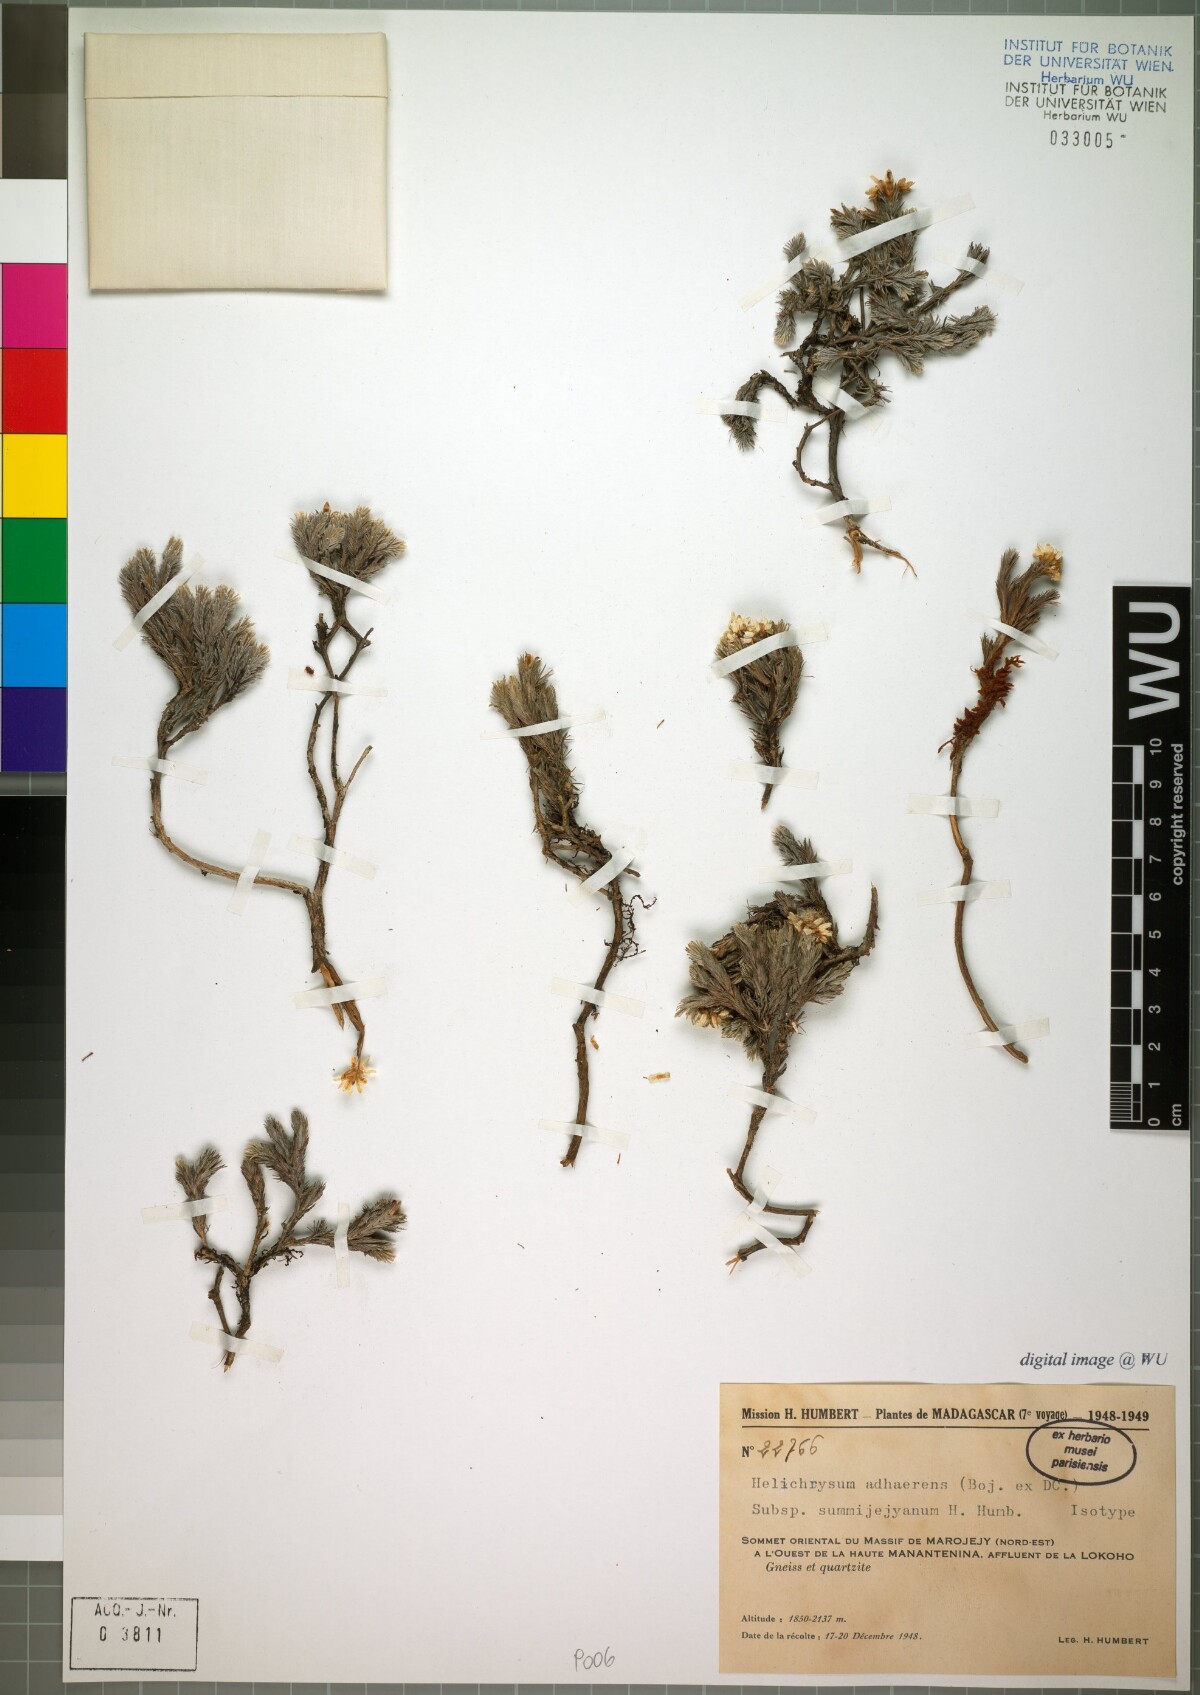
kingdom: Plantae
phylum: Tracheophyta
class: Magnoliopsida
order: Asterales
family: Asteraceae
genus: Aphelexis
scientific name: Aphelexis adhaerens
